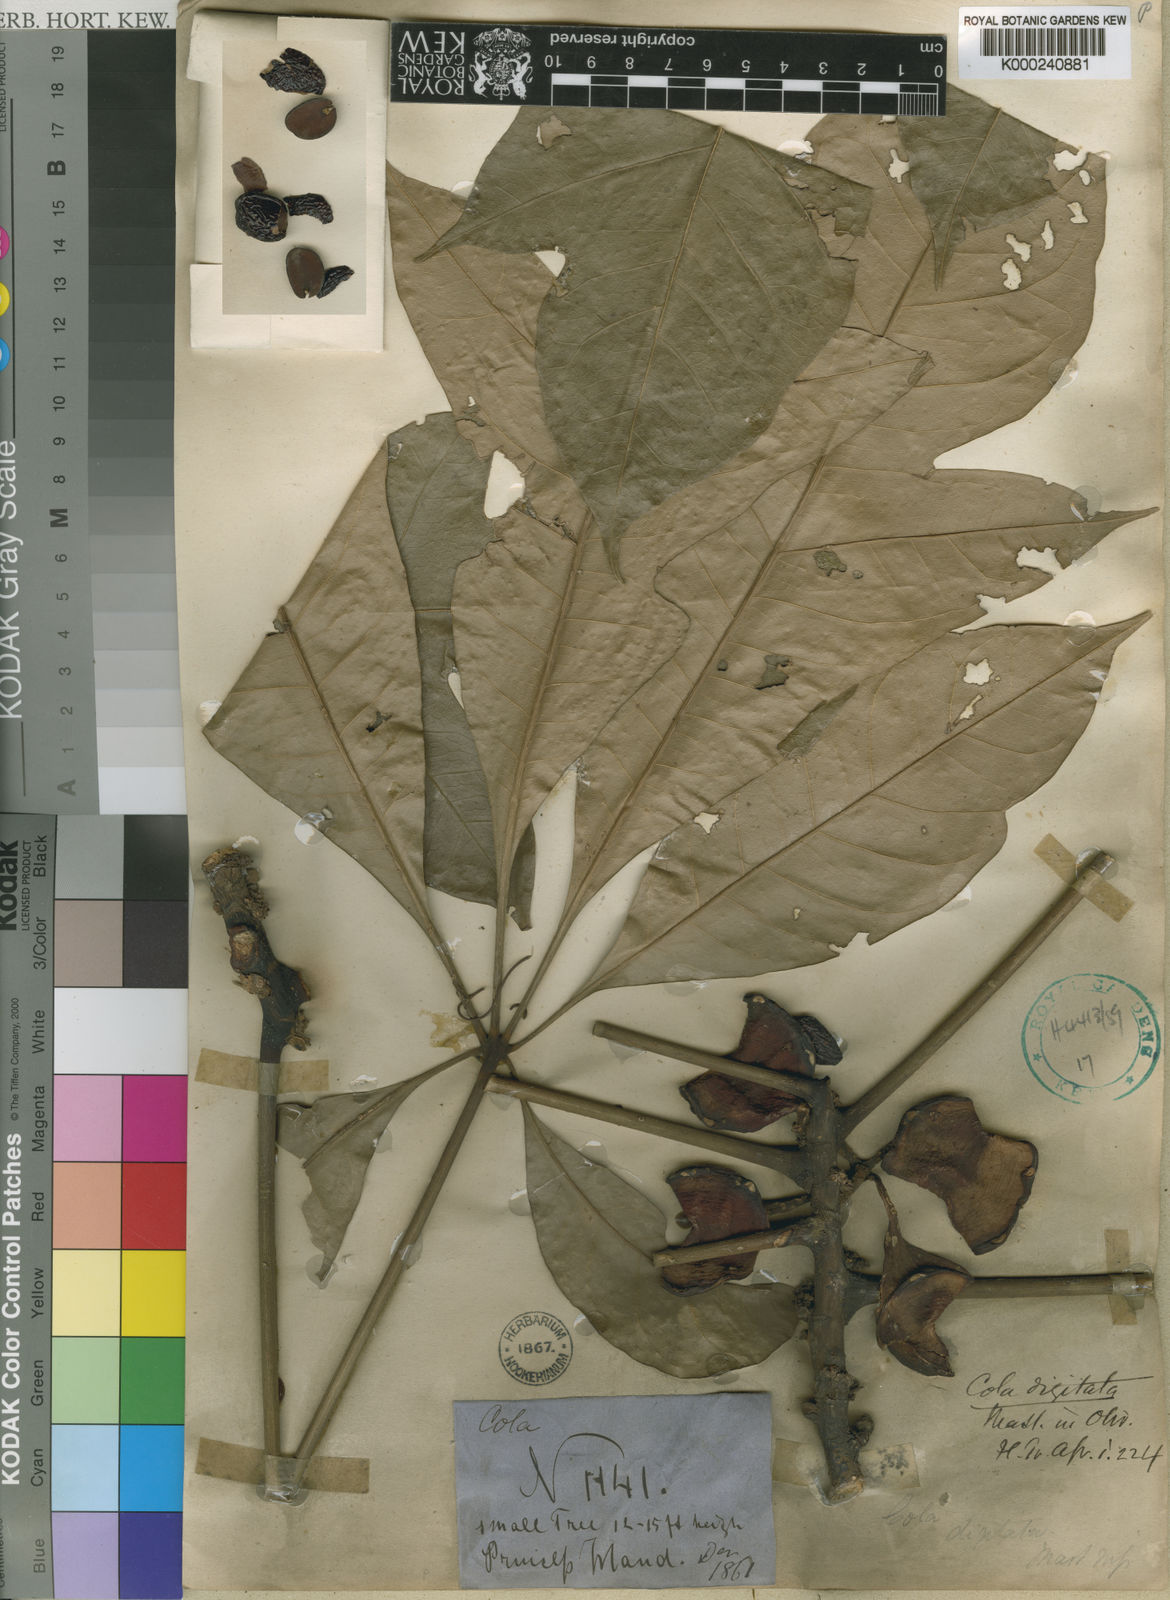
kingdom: Plantae
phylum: Tracheophyta
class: Magnoliopsida
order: Malvales
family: Malvaceae
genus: Cola
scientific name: Cola digitata
